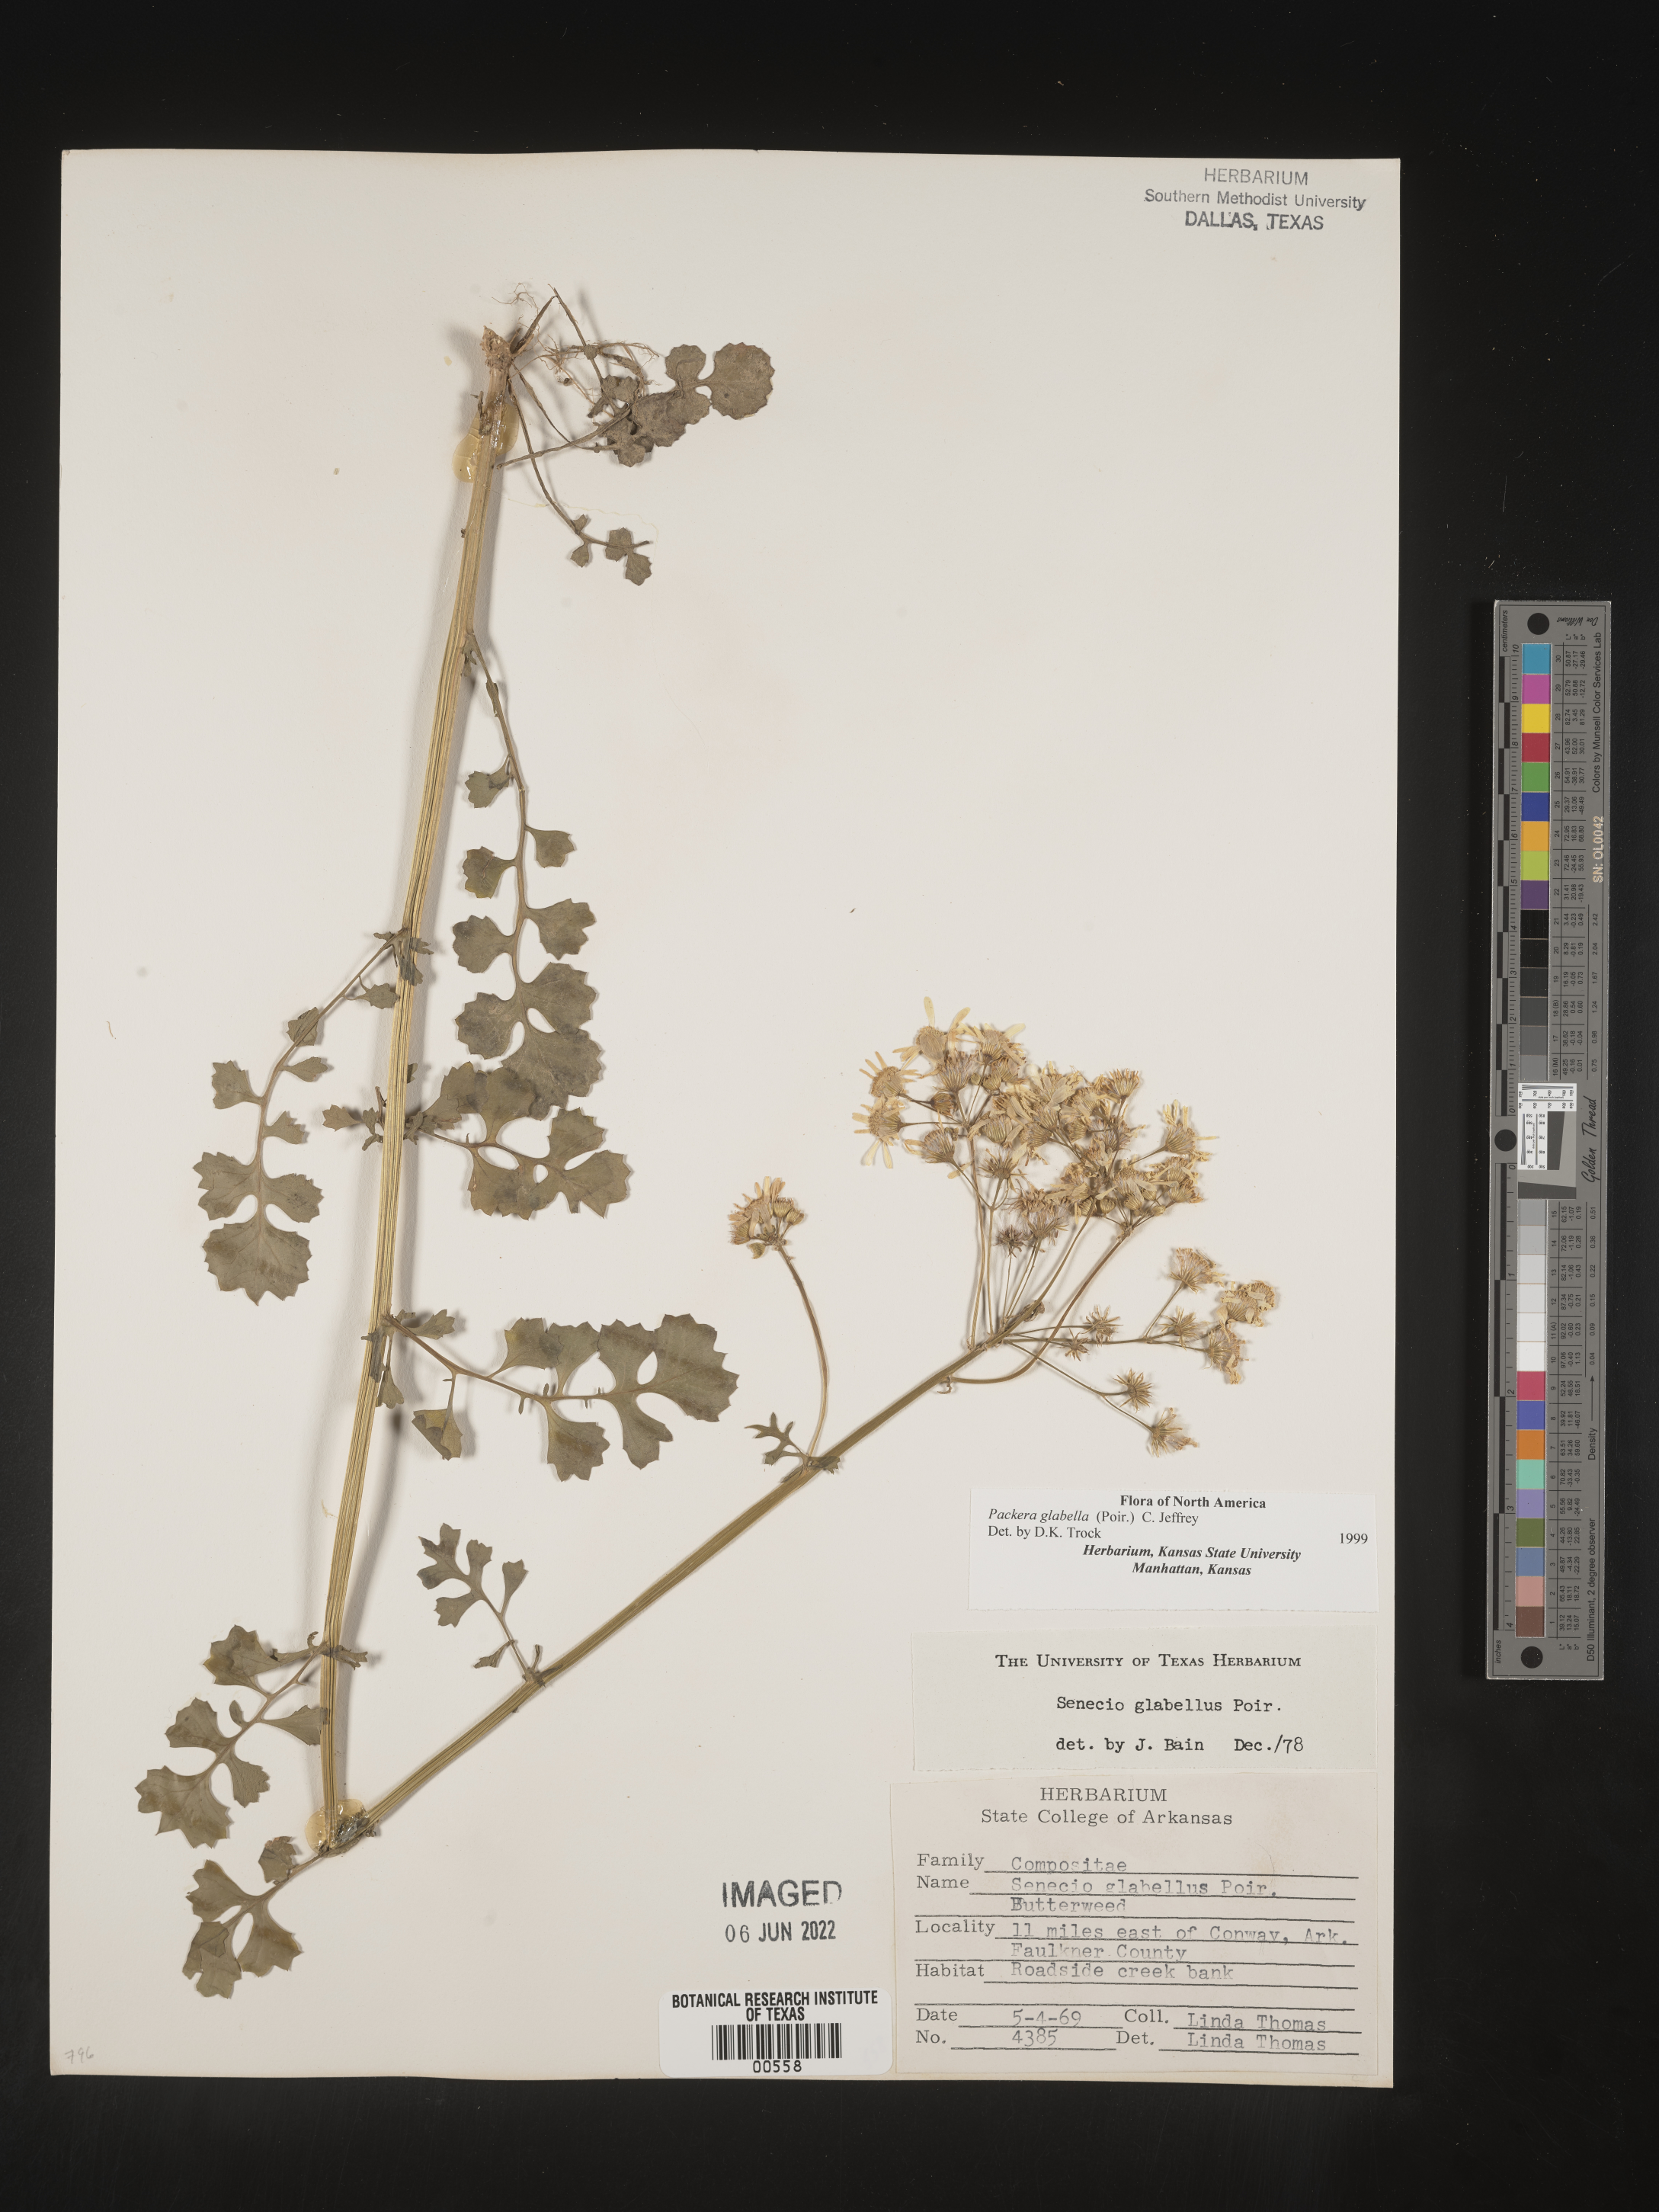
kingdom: Plantae
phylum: Tracheophyta
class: Magnoliopsida
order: Asterales
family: Asteraceae
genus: Packera
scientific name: Packera glabella
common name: Butterweed
